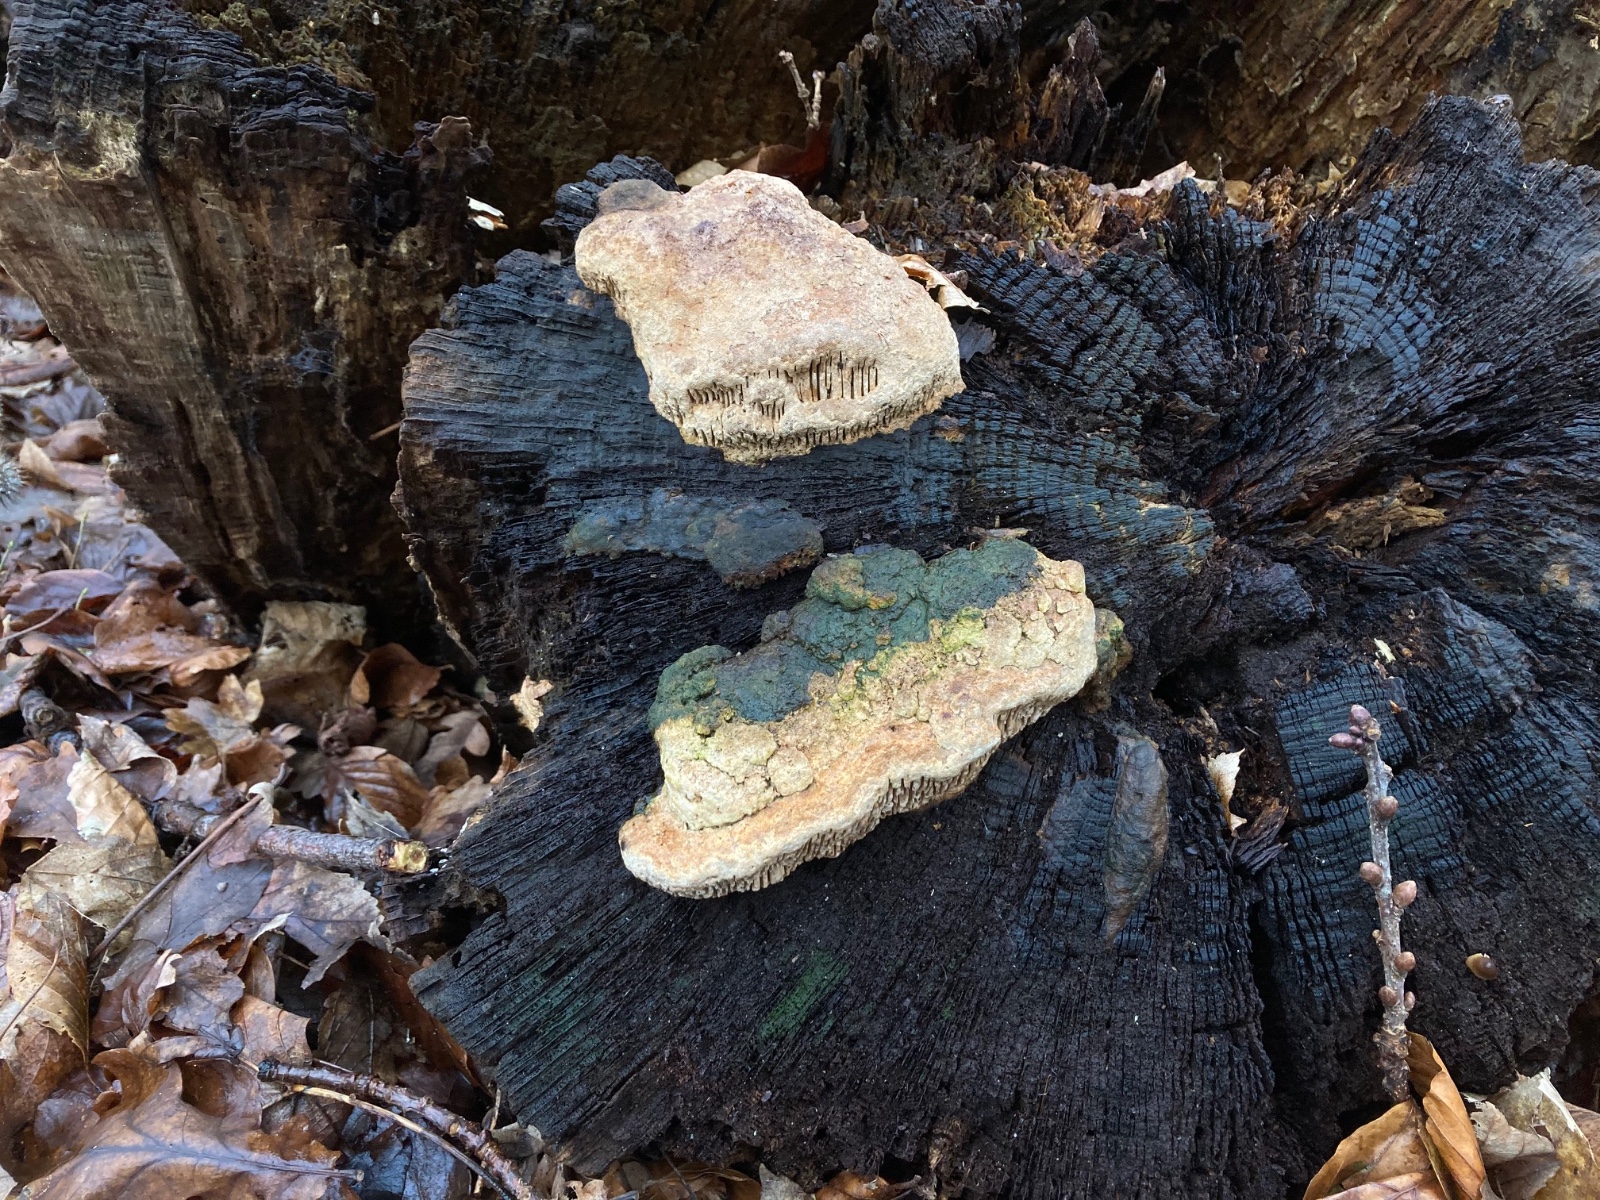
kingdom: Fungi
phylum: Basidiomycota
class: Agaricomycetes
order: Polyporales
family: Fomitopsidaceae
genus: Daedalea
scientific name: Daedalea quercina
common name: ege-labyrintsvamp
